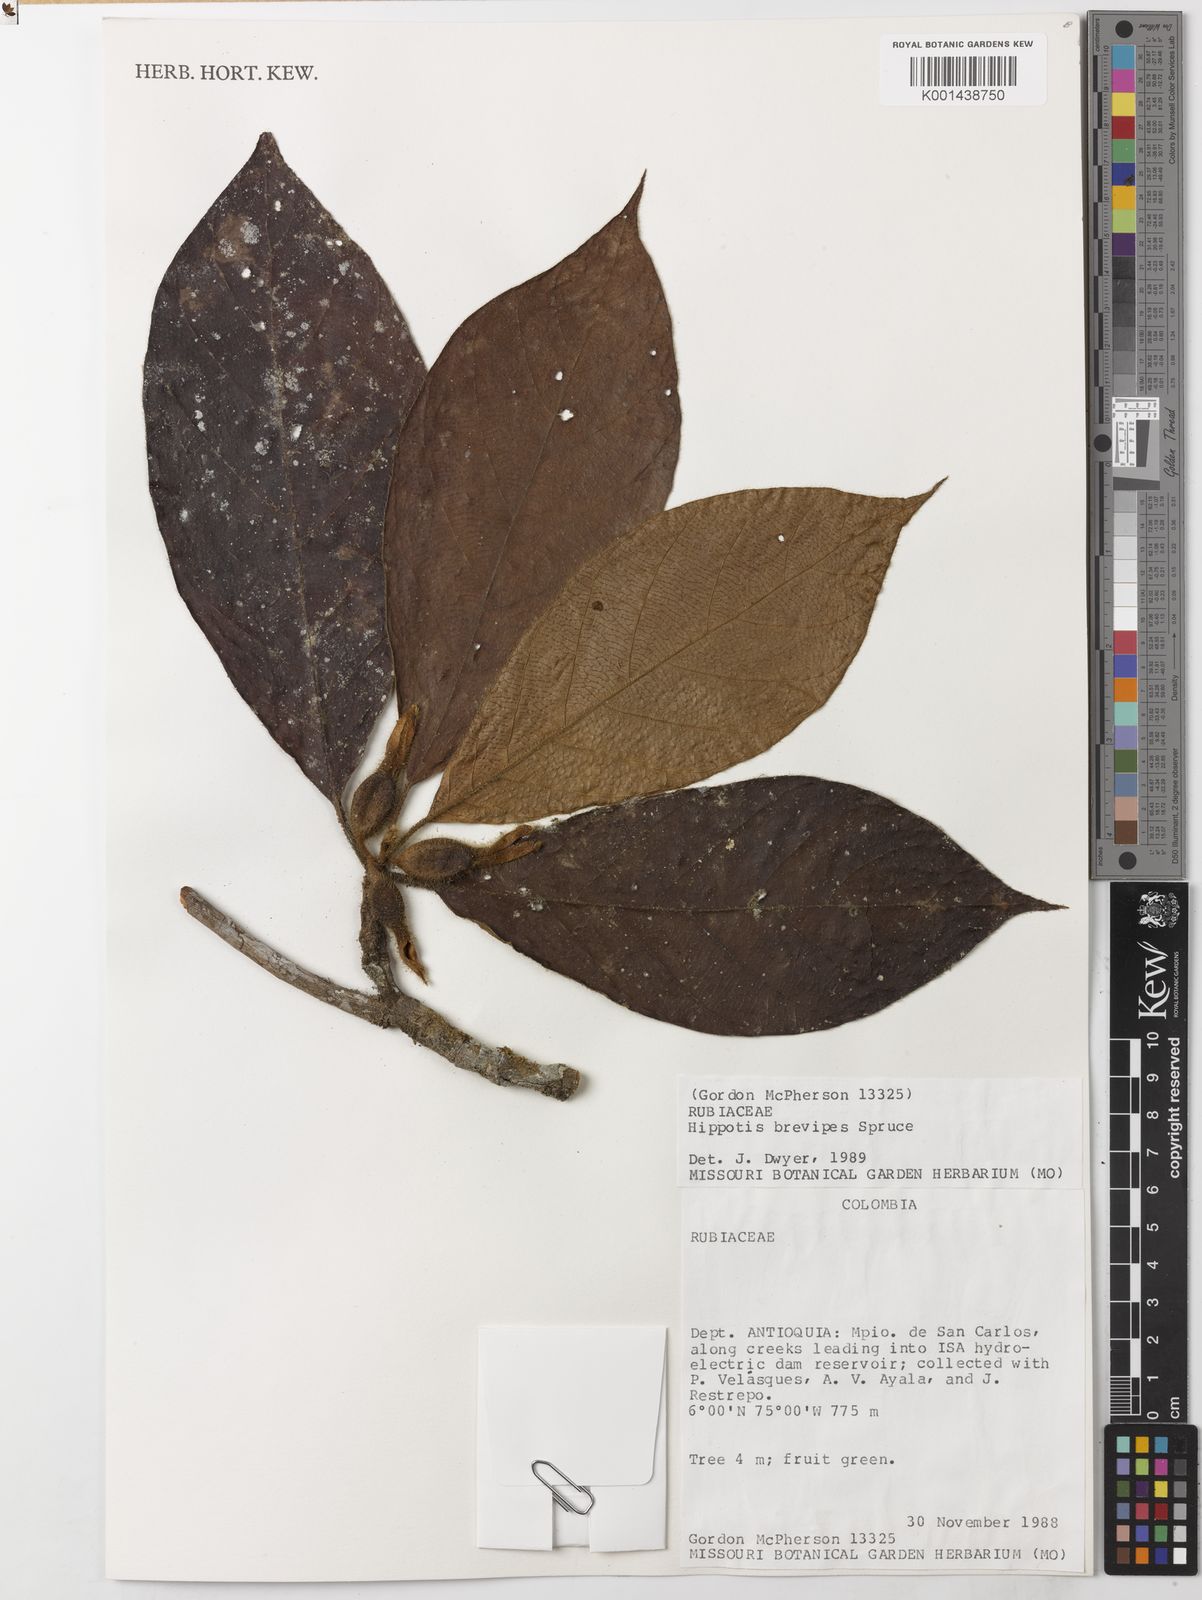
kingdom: Plantae
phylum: Tracheophyta
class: Magnoliopsida
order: Gentianales
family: Rubiaceae
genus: Hippotis
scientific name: Hippotis brevipes
